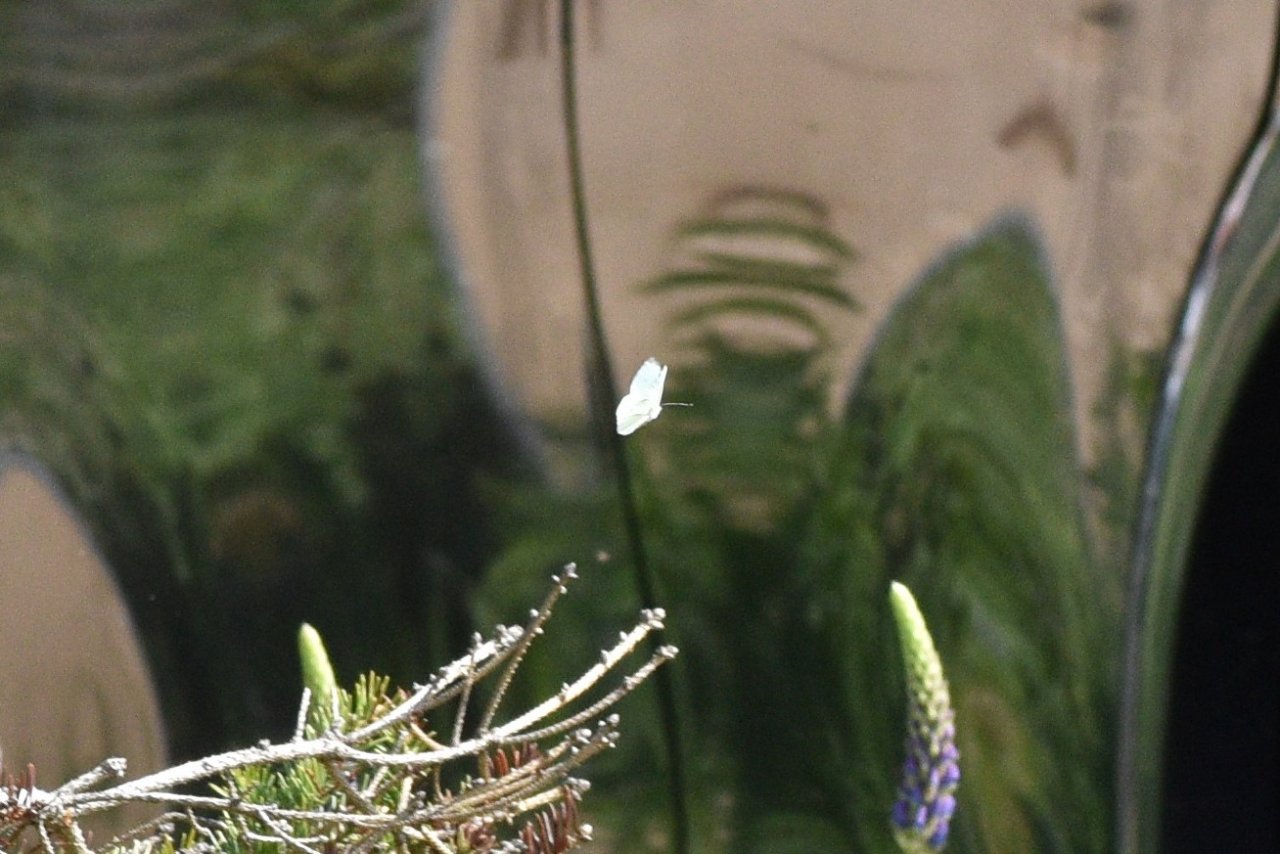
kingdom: Animalia
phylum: Arthropoda
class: Insecta
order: Lepidoptera
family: Pieridae
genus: Pieris
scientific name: Pieris rapae
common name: Cabbage White
